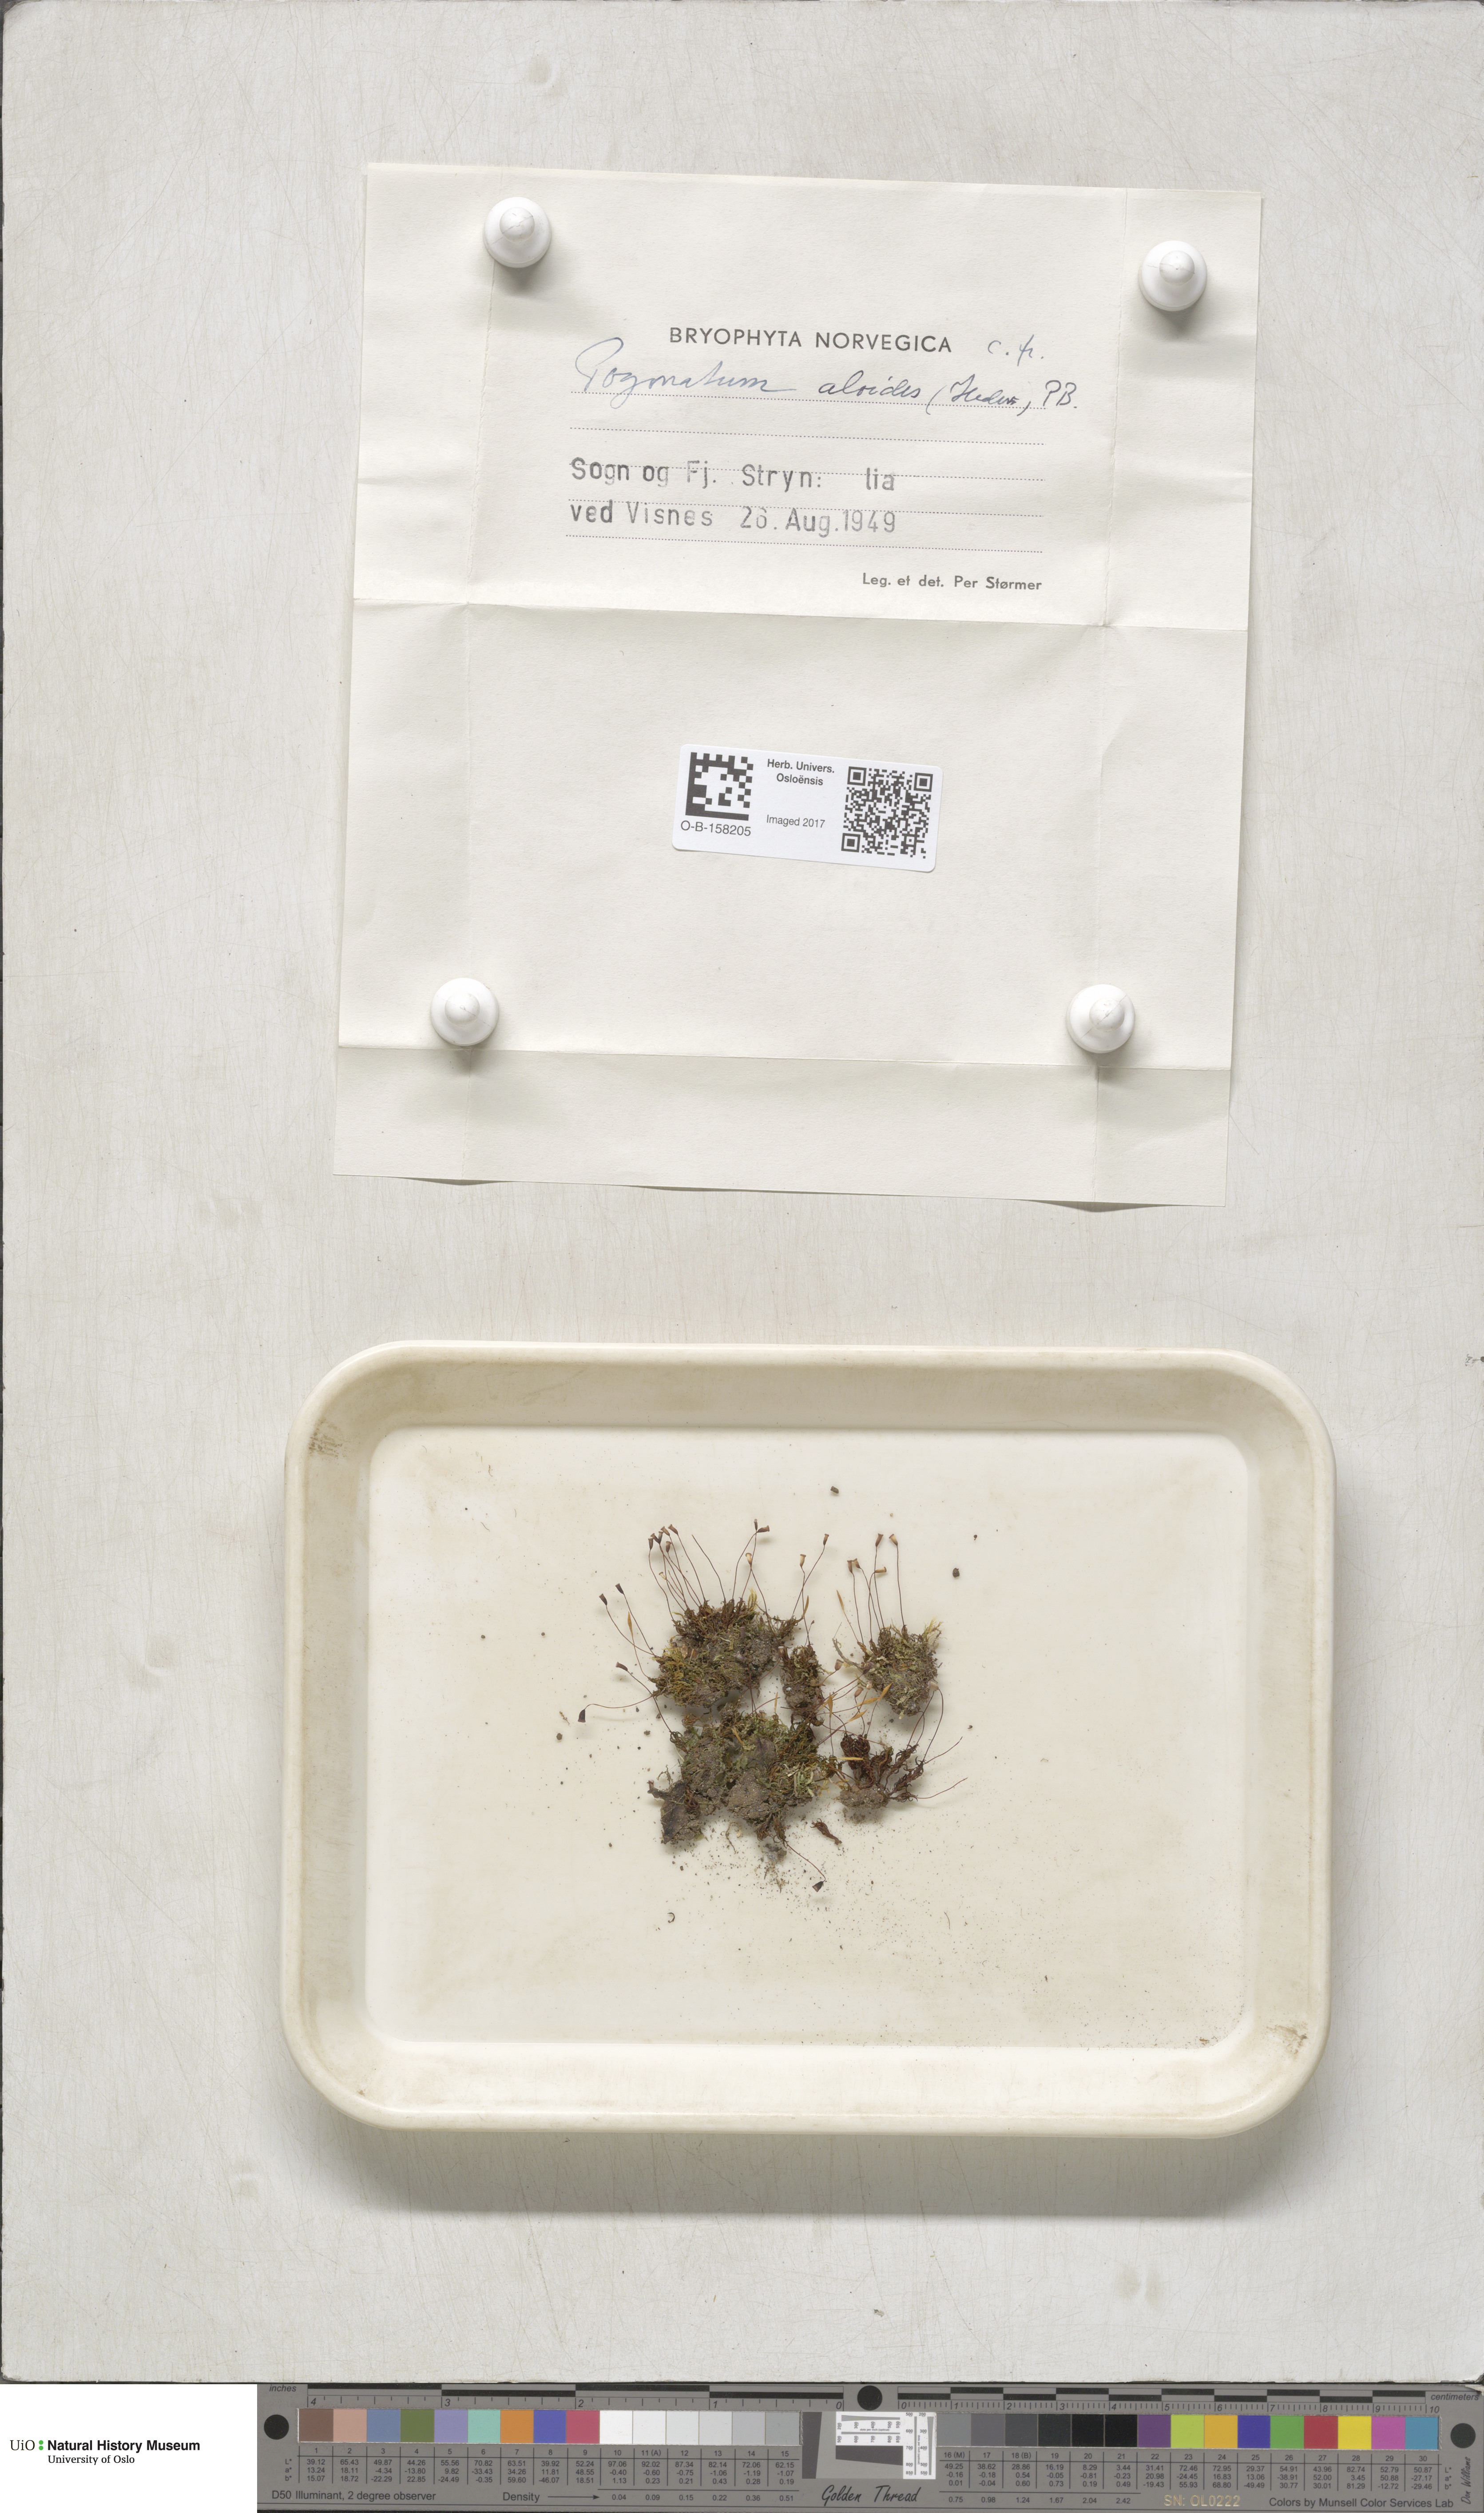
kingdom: Plantae
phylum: Bryophyta
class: Polytrichopsida
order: Polytrichales
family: Polytrichaceae
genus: Pogonatum
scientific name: Pogonatum aloides
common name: Aloe haircap
